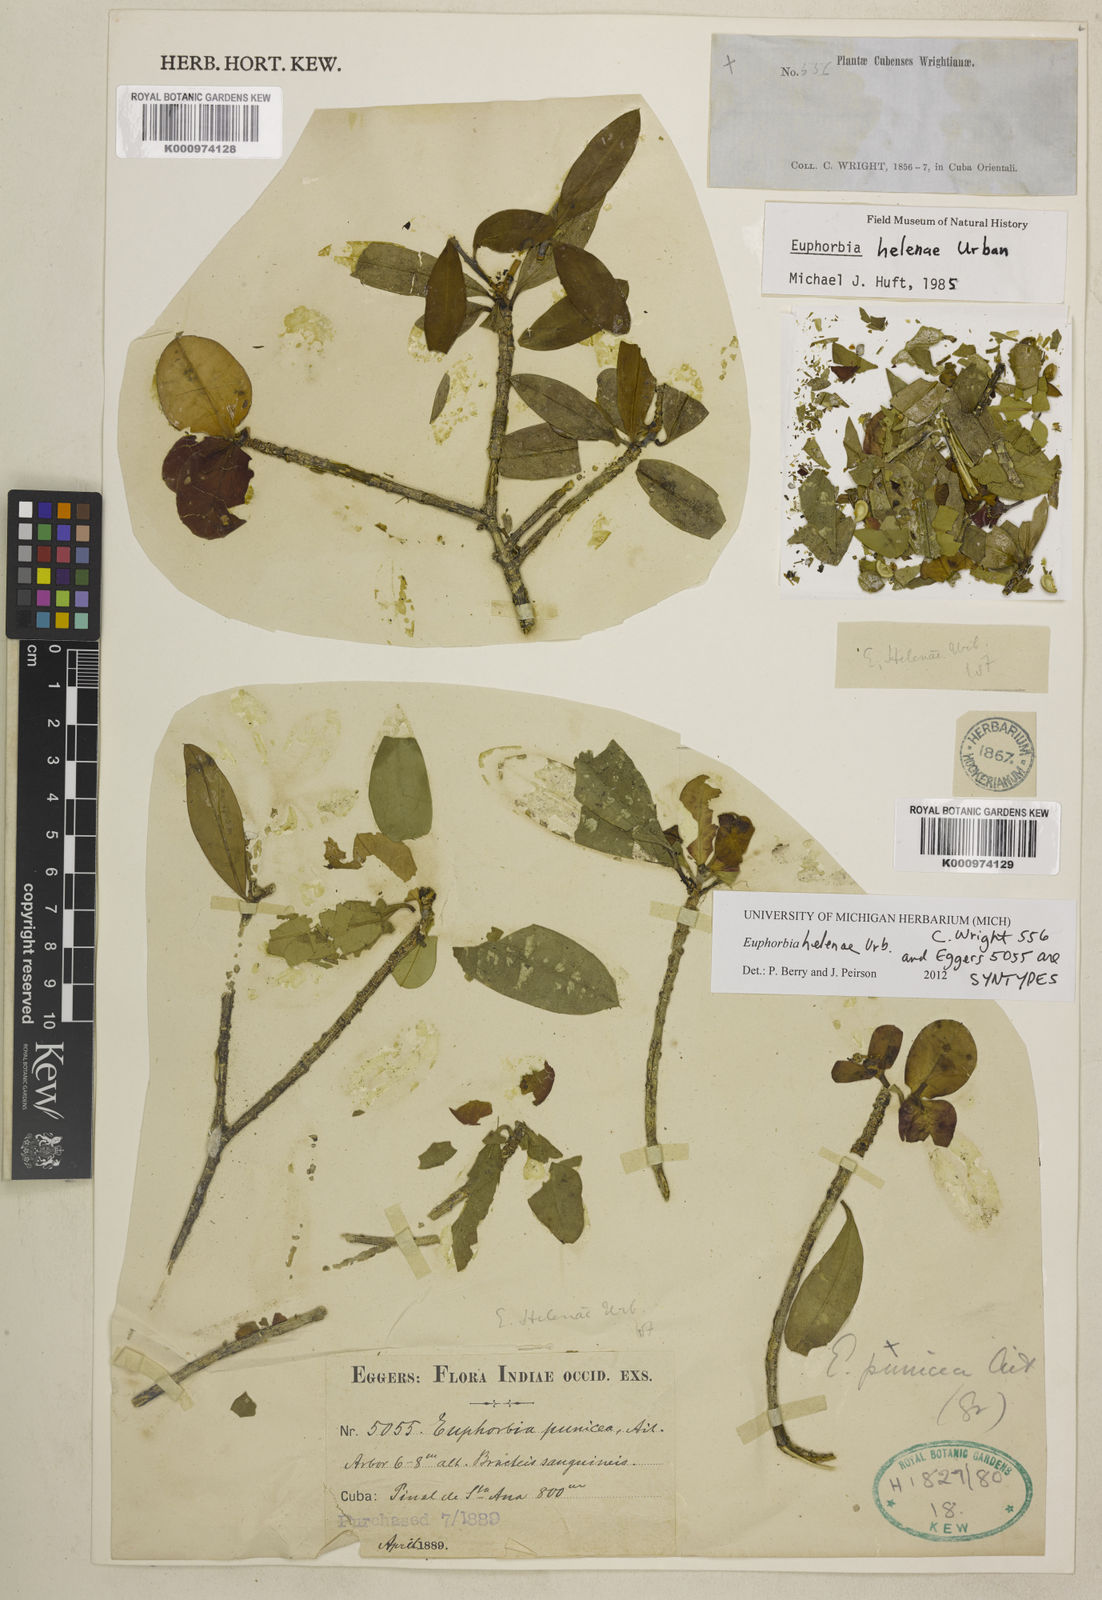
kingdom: Plantae
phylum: Tracheophyta
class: Liliopsida
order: Asparagales
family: Orchidaceae
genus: Pterichis
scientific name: Pterichis andrei
